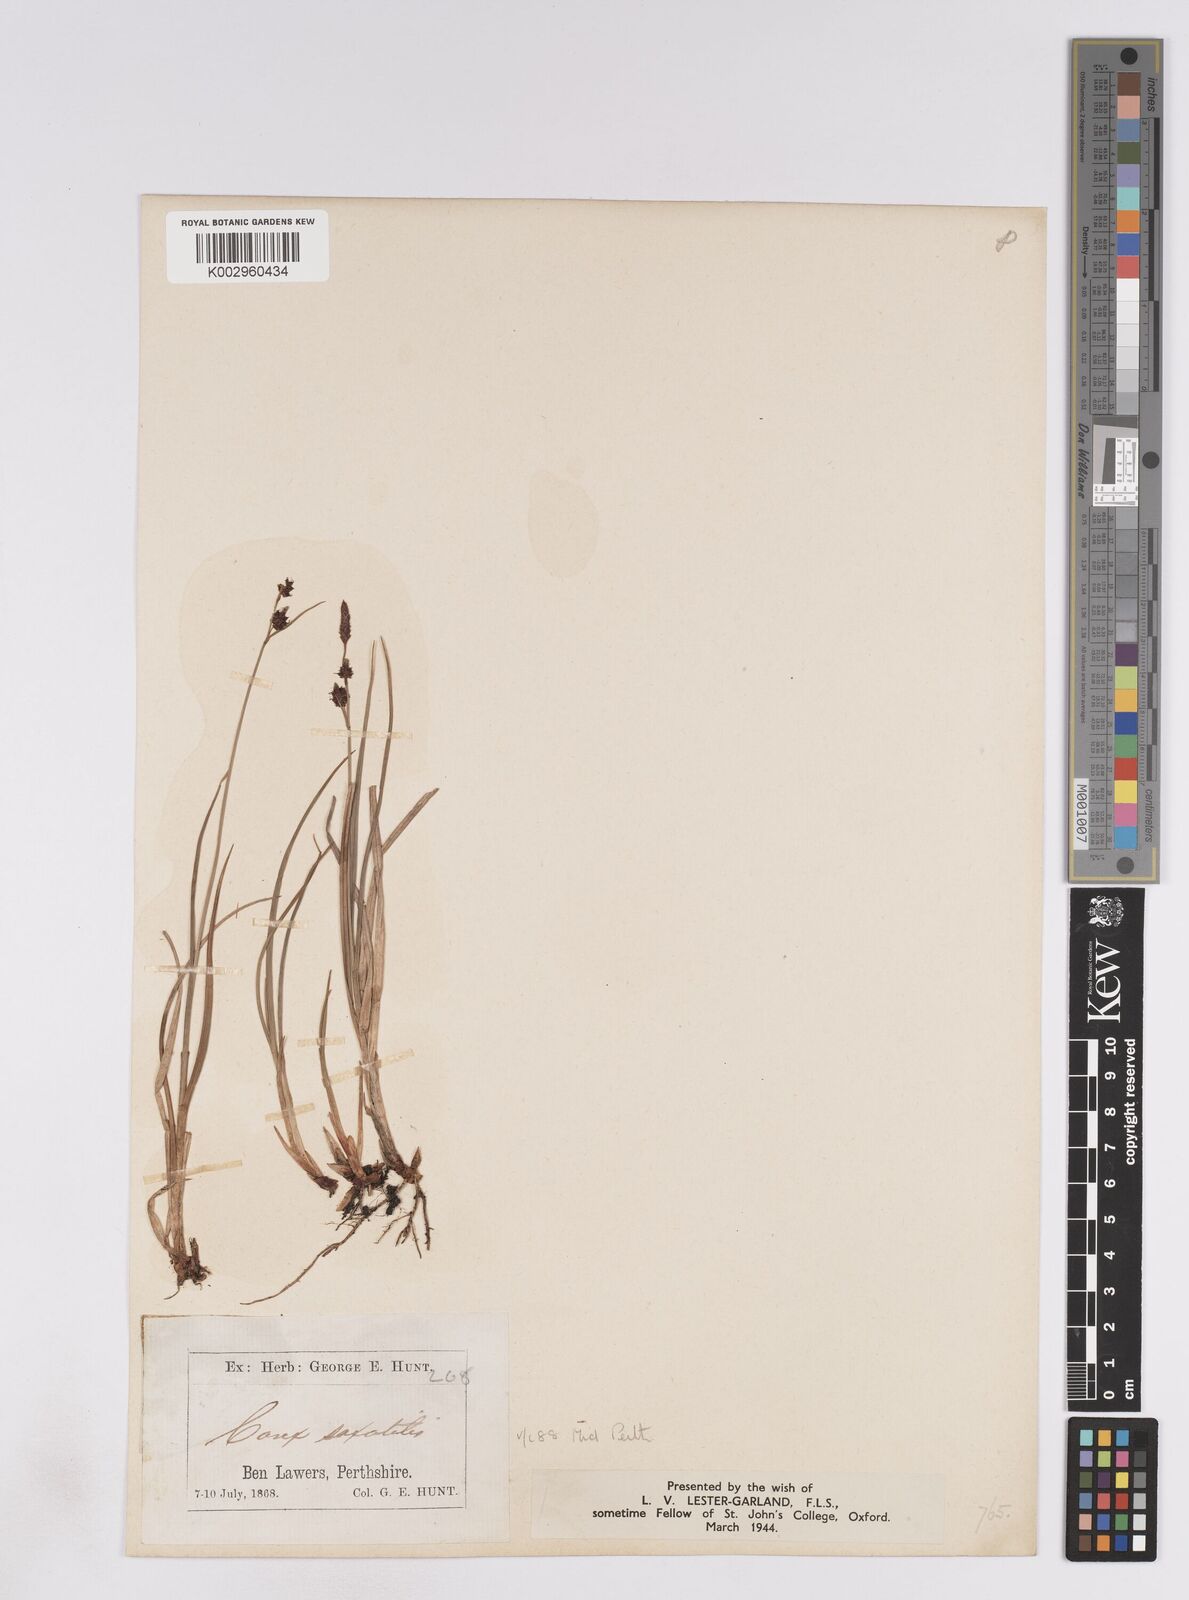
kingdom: Plantae
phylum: Tracheophyta
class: Liliopsida
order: Poales
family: Cyperaceae
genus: Carex
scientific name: Carex saxatilis
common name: Russet sedge
